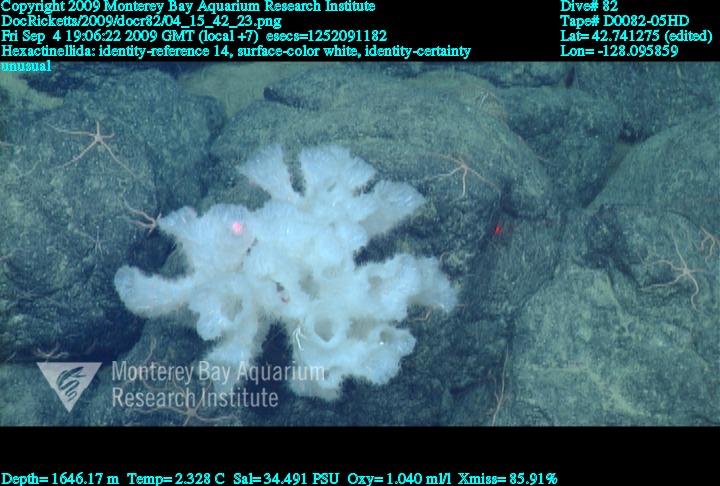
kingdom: Animalia
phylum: Porifera
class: Hexactinellida
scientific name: Hexactinellida
